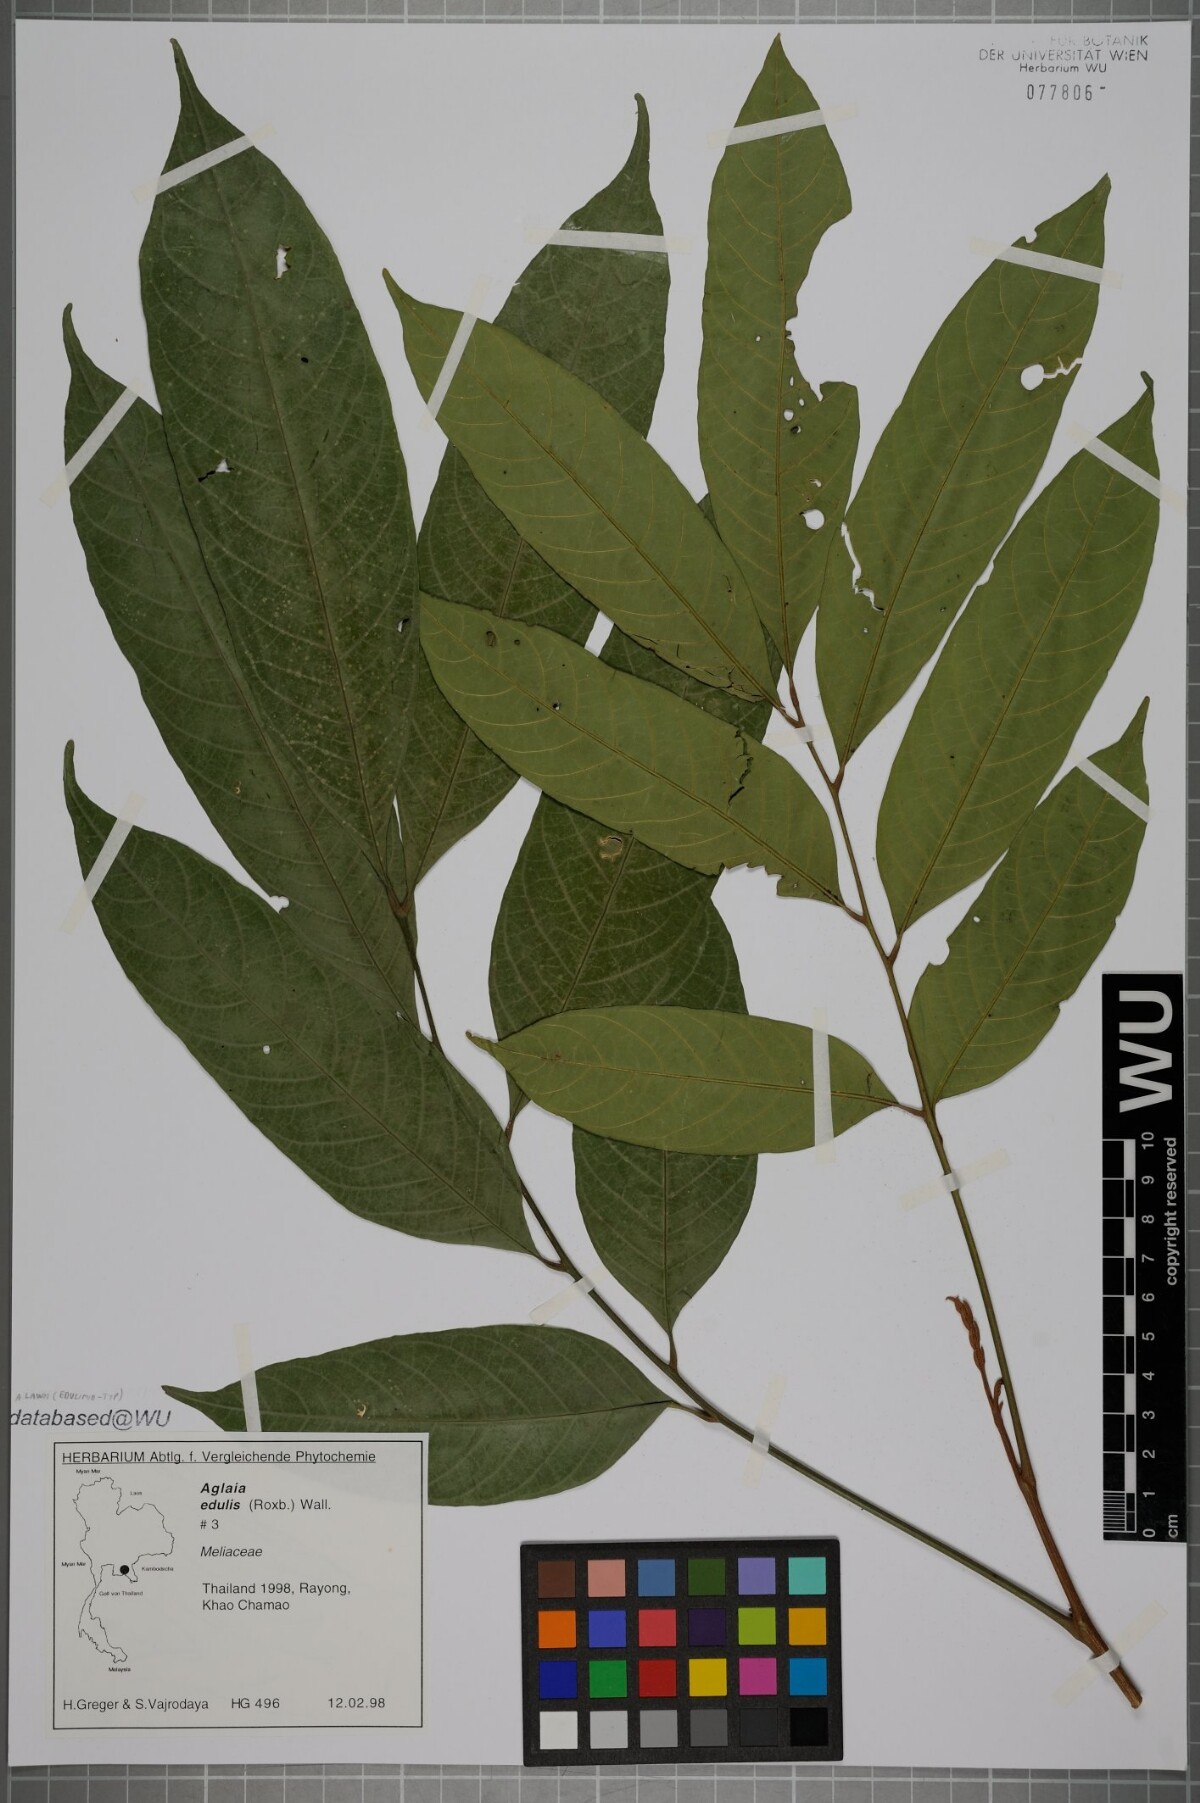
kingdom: Plantae
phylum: Tracheophyta
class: Magnoliopsida
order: Sapindales
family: Meliaceae
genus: Aglaia
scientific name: Aglaia lawii
